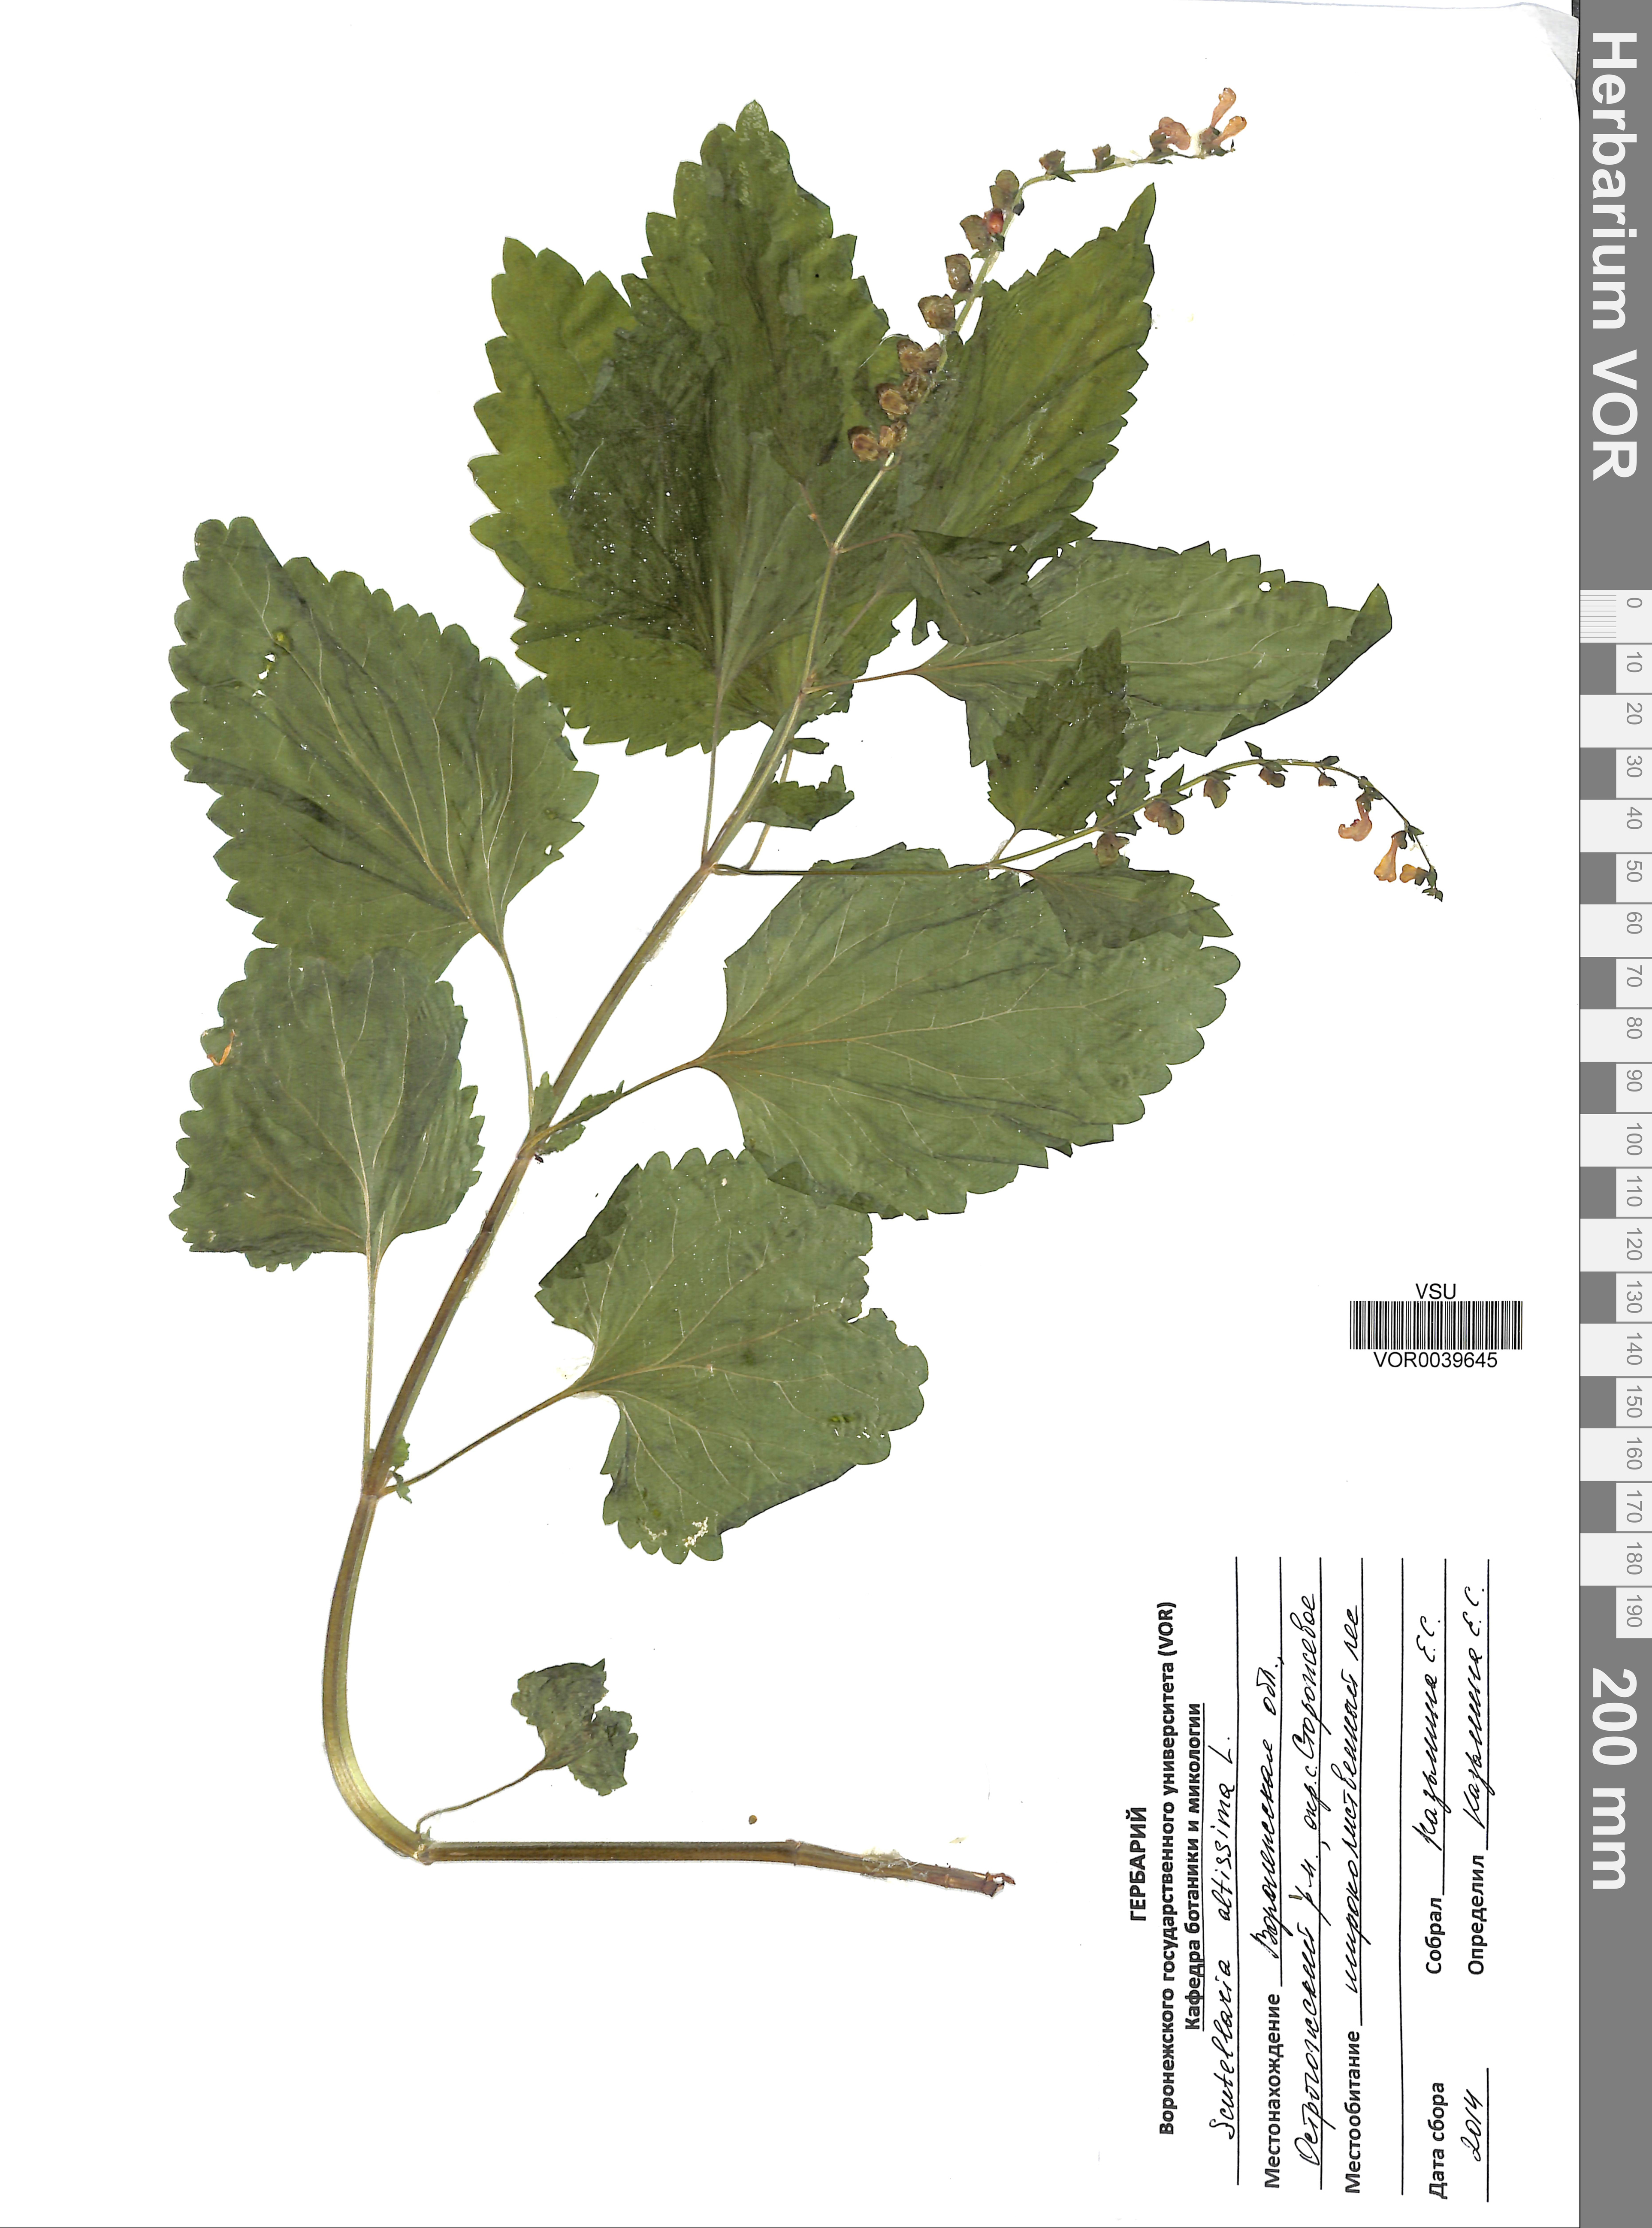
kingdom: Plantae
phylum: Tracheophyta
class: Magnoliopsida
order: Lamiales
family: Lamiaceae
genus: Scutellaria
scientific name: Scutellaria altissima
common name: Somerset skullcap
